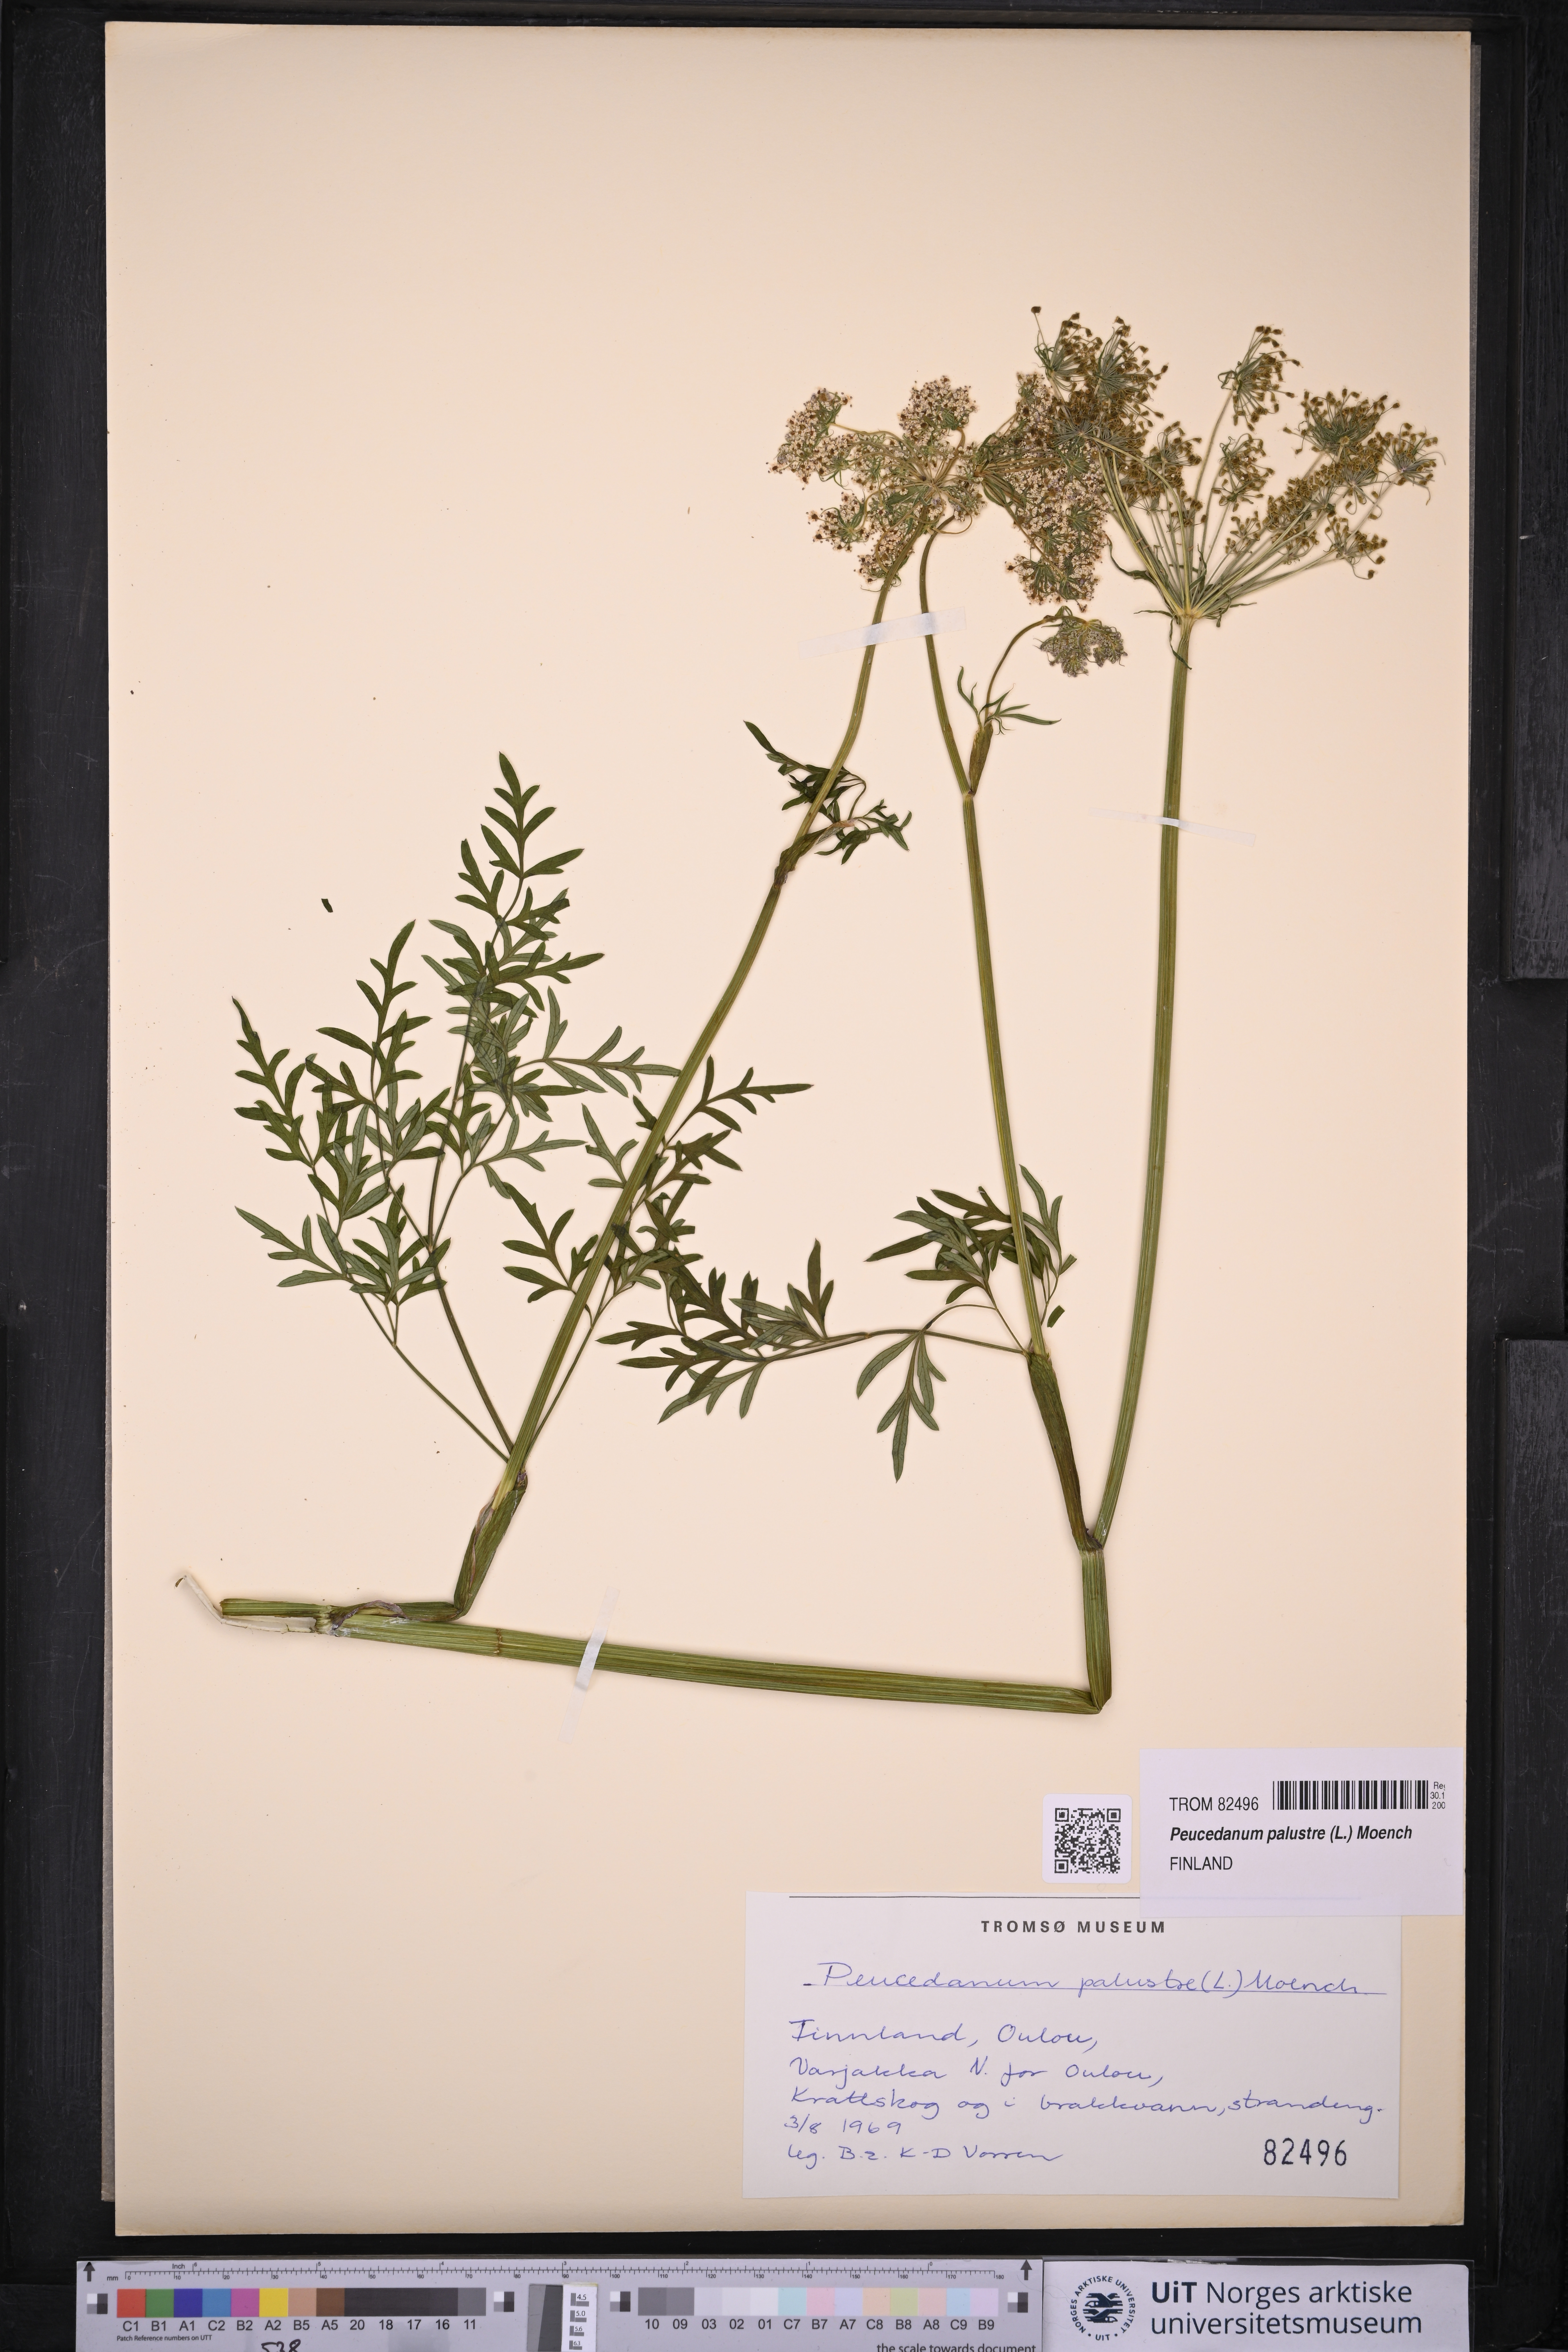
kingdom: Plantae
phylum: Tracheophyta
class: Magnoliopsida
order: Apiales
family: Apiaceae
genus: Thysselinum
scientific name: Thysselinum palustre
